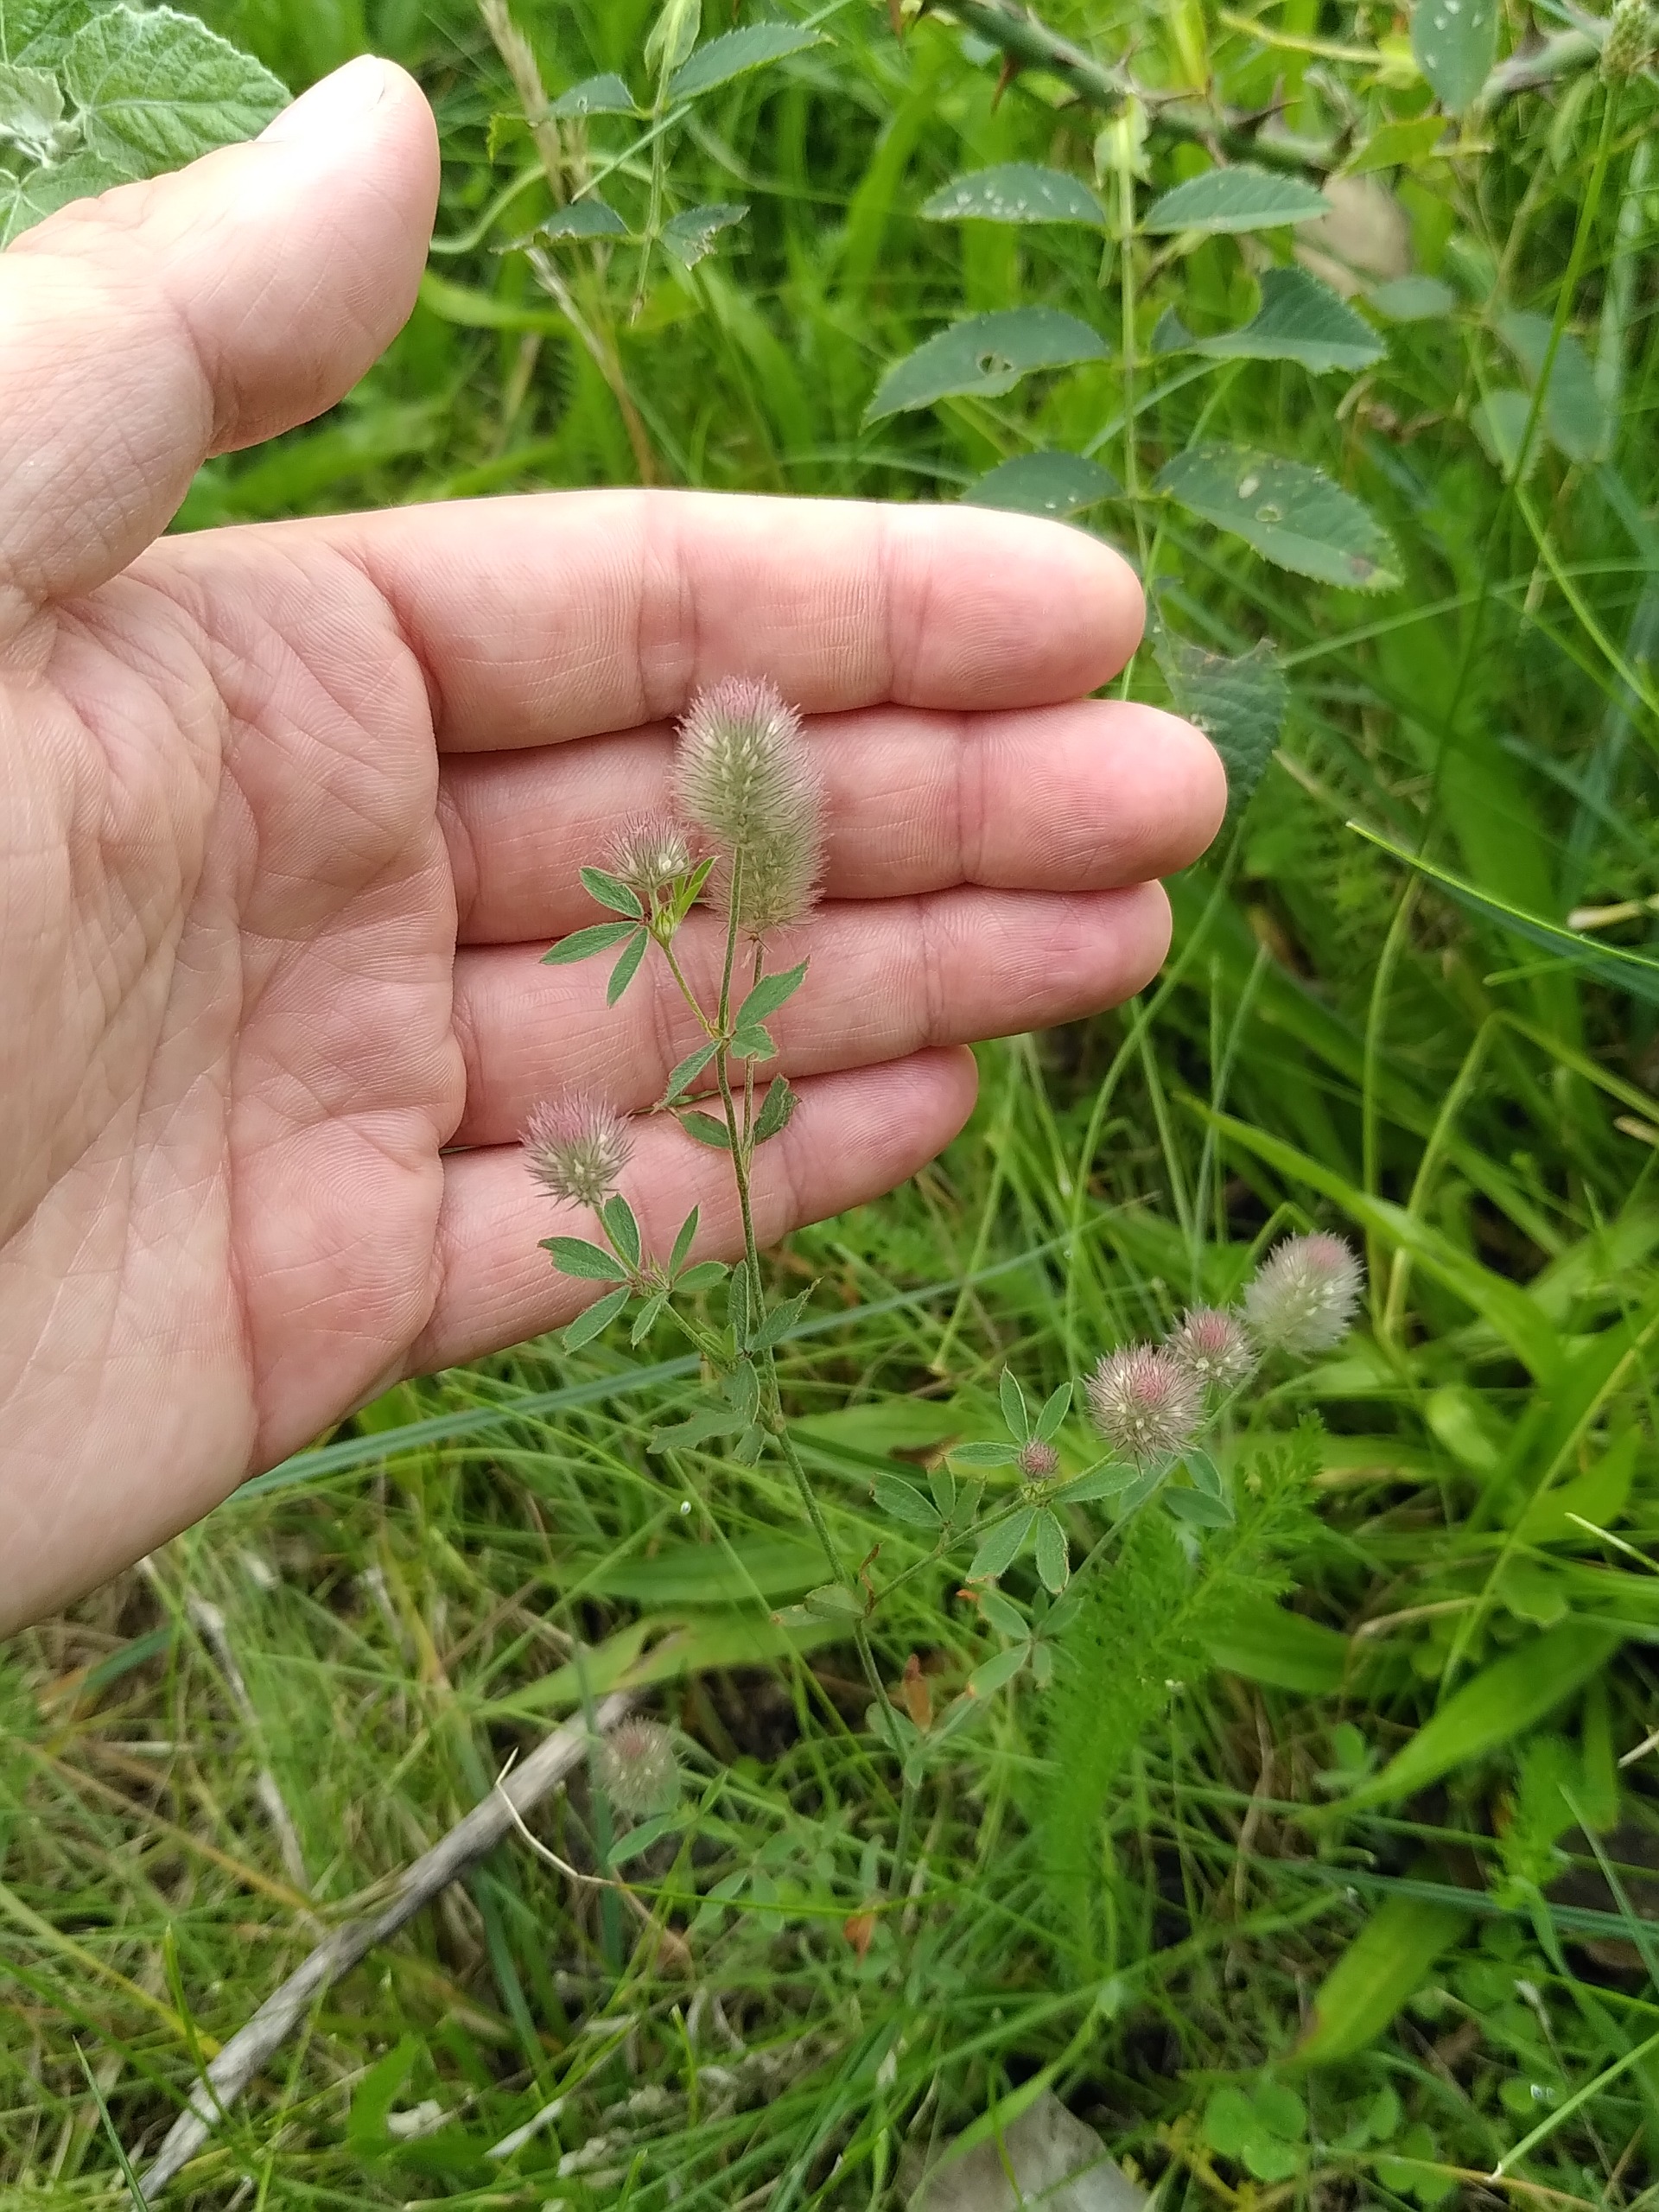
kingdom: Plantae
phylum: Tracheophyta
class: Magnoliopsida
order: Fabales
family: Fabaceae
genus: Trifolium
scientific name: Trifolium arvense
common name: Hare-kløver
